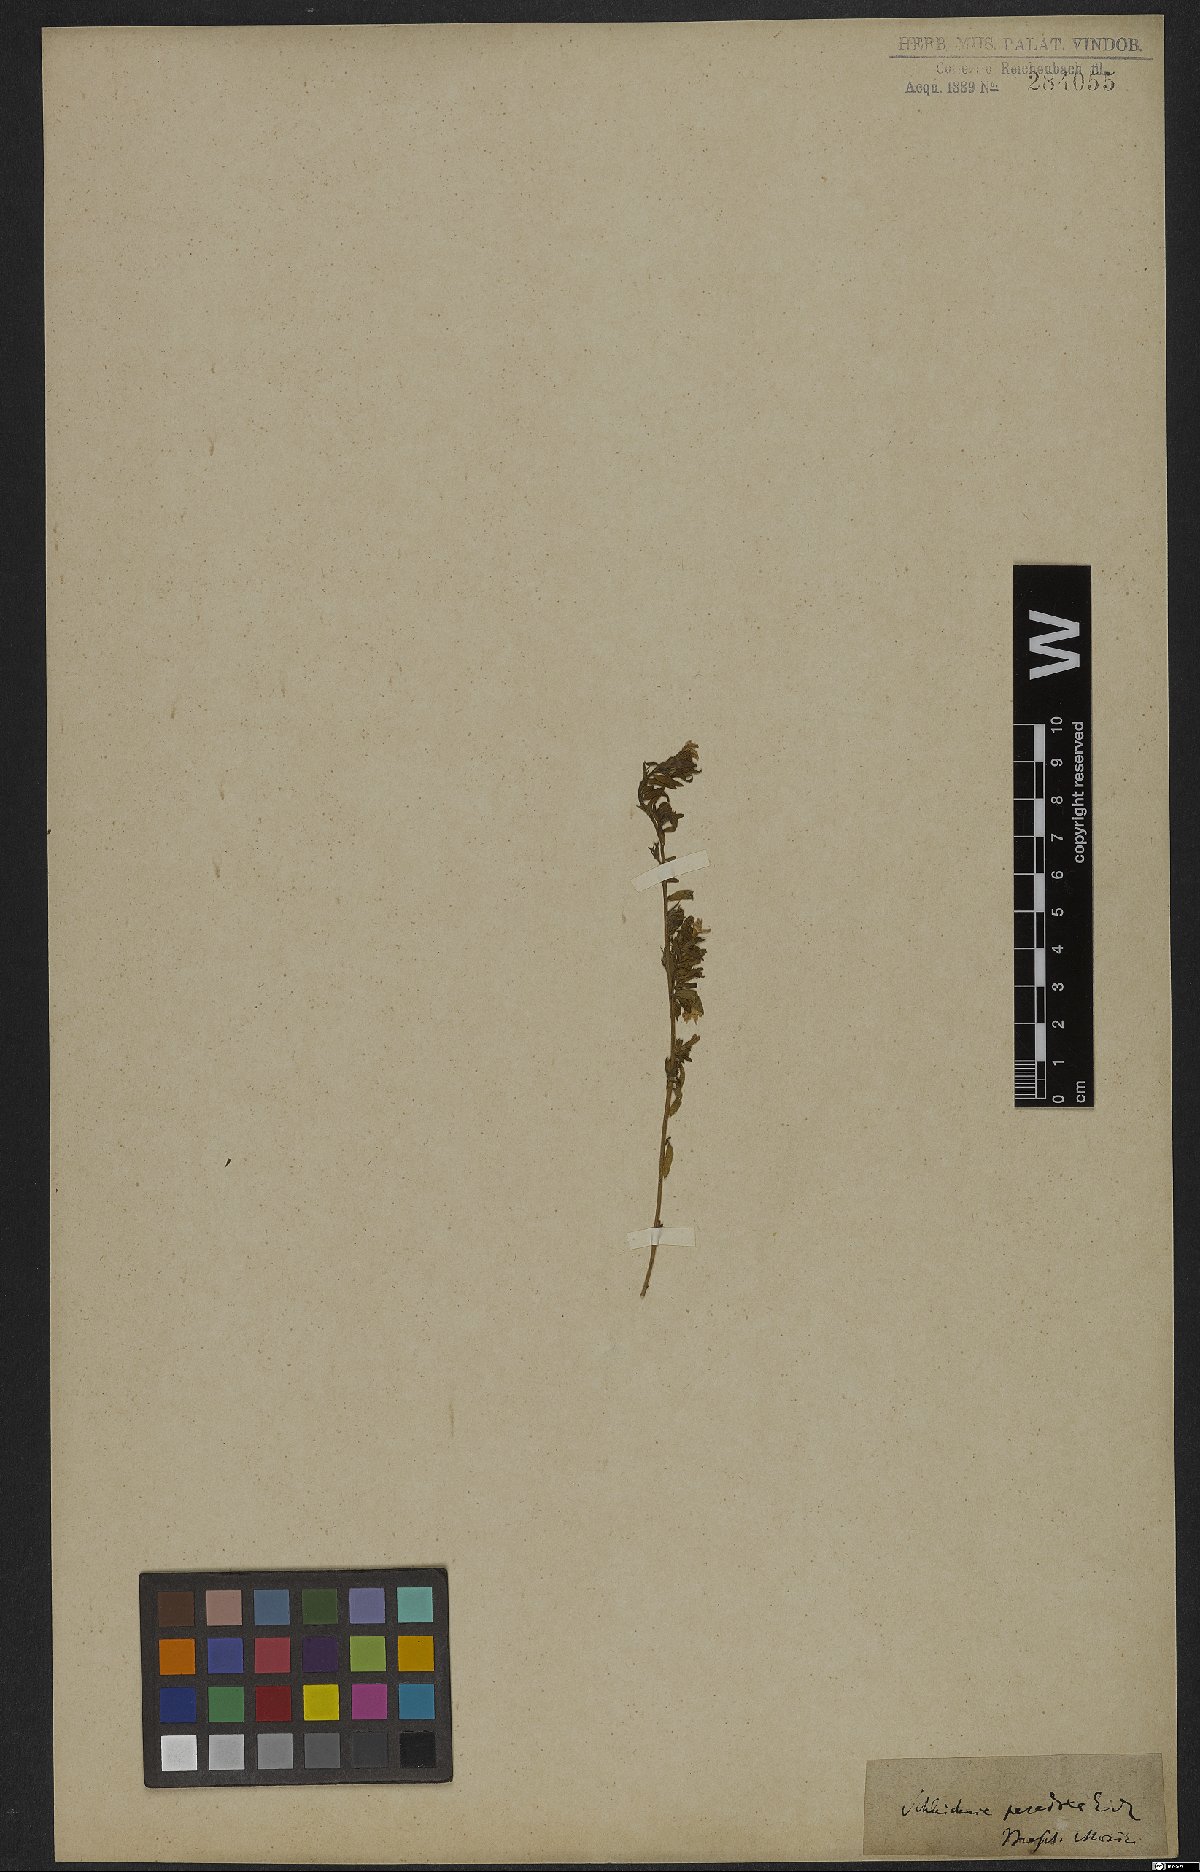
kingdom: Plantae
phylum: Tracheophyta
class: Magnoliopsida
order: Boraginales
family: Heliotropiaceae
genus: Heliotropium
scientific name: Heliotropium macrodon
